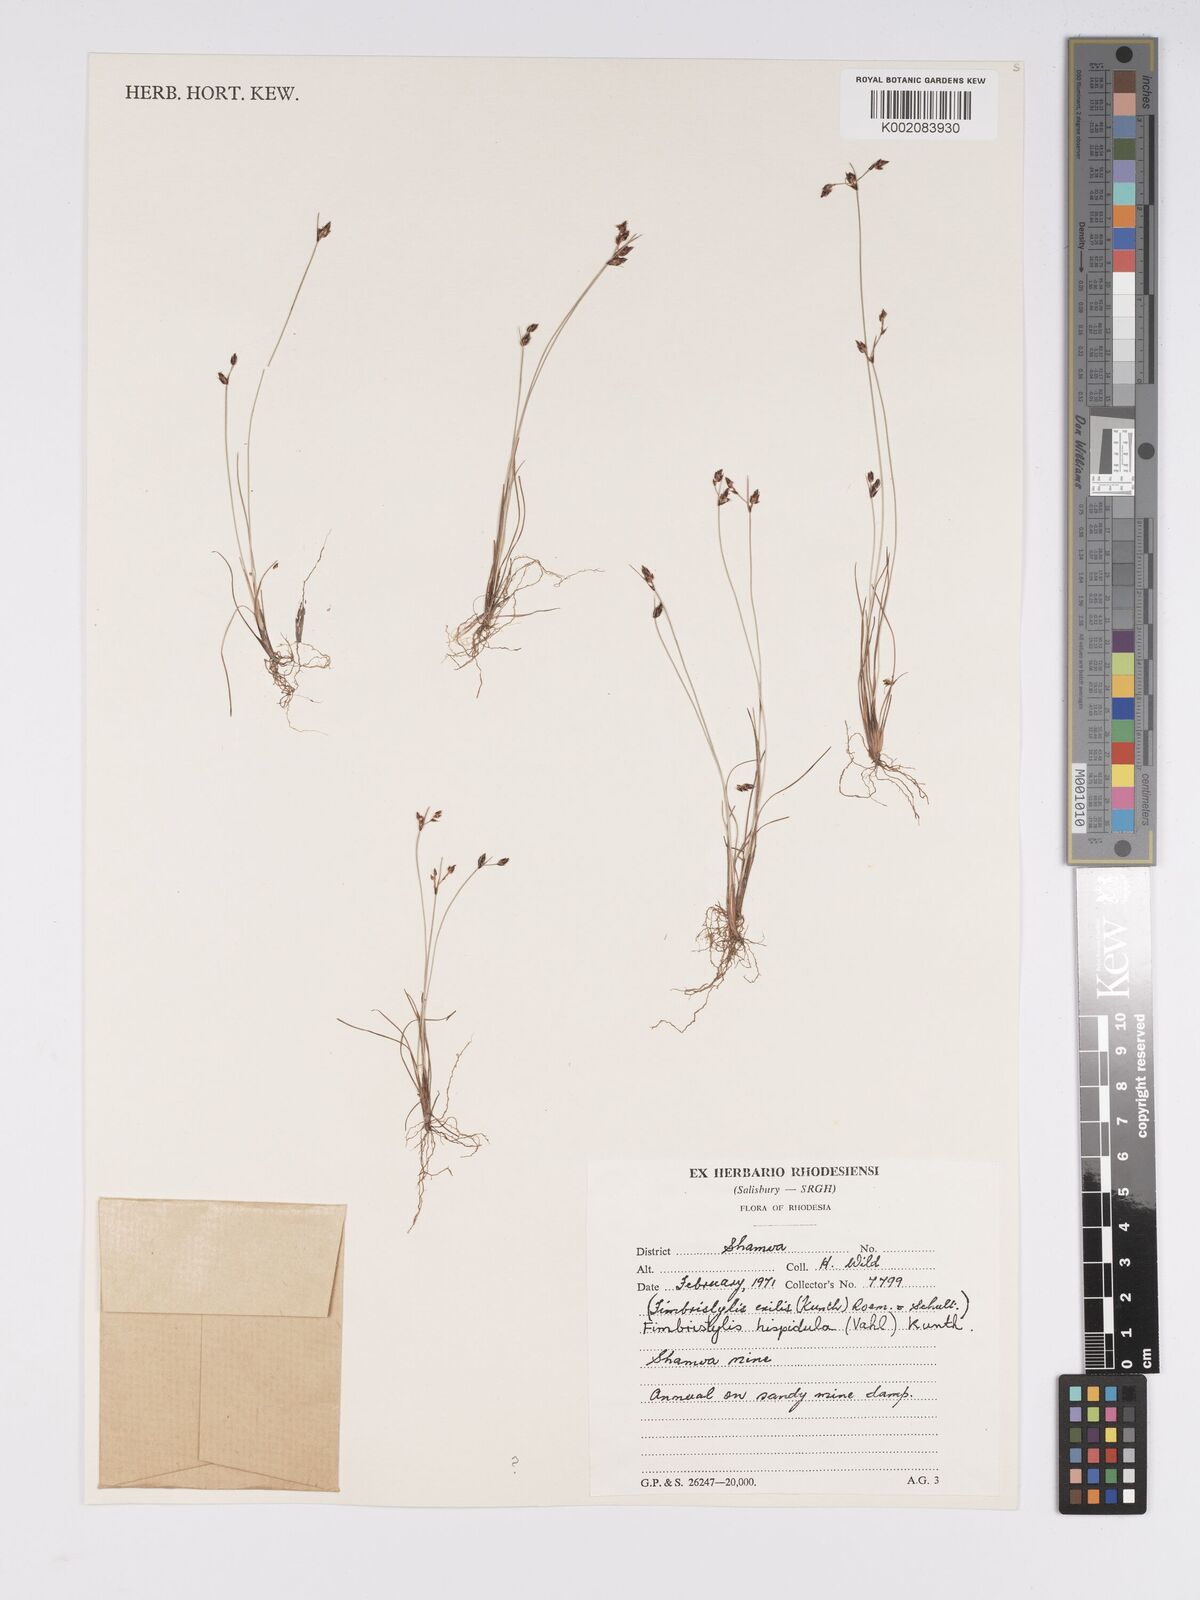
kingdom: Plantae
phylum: Tracheophyta
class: Liliopsida
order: Poales
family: Cyperaceae
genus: Bulbostylis
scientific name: Bulbostylis hispidula
